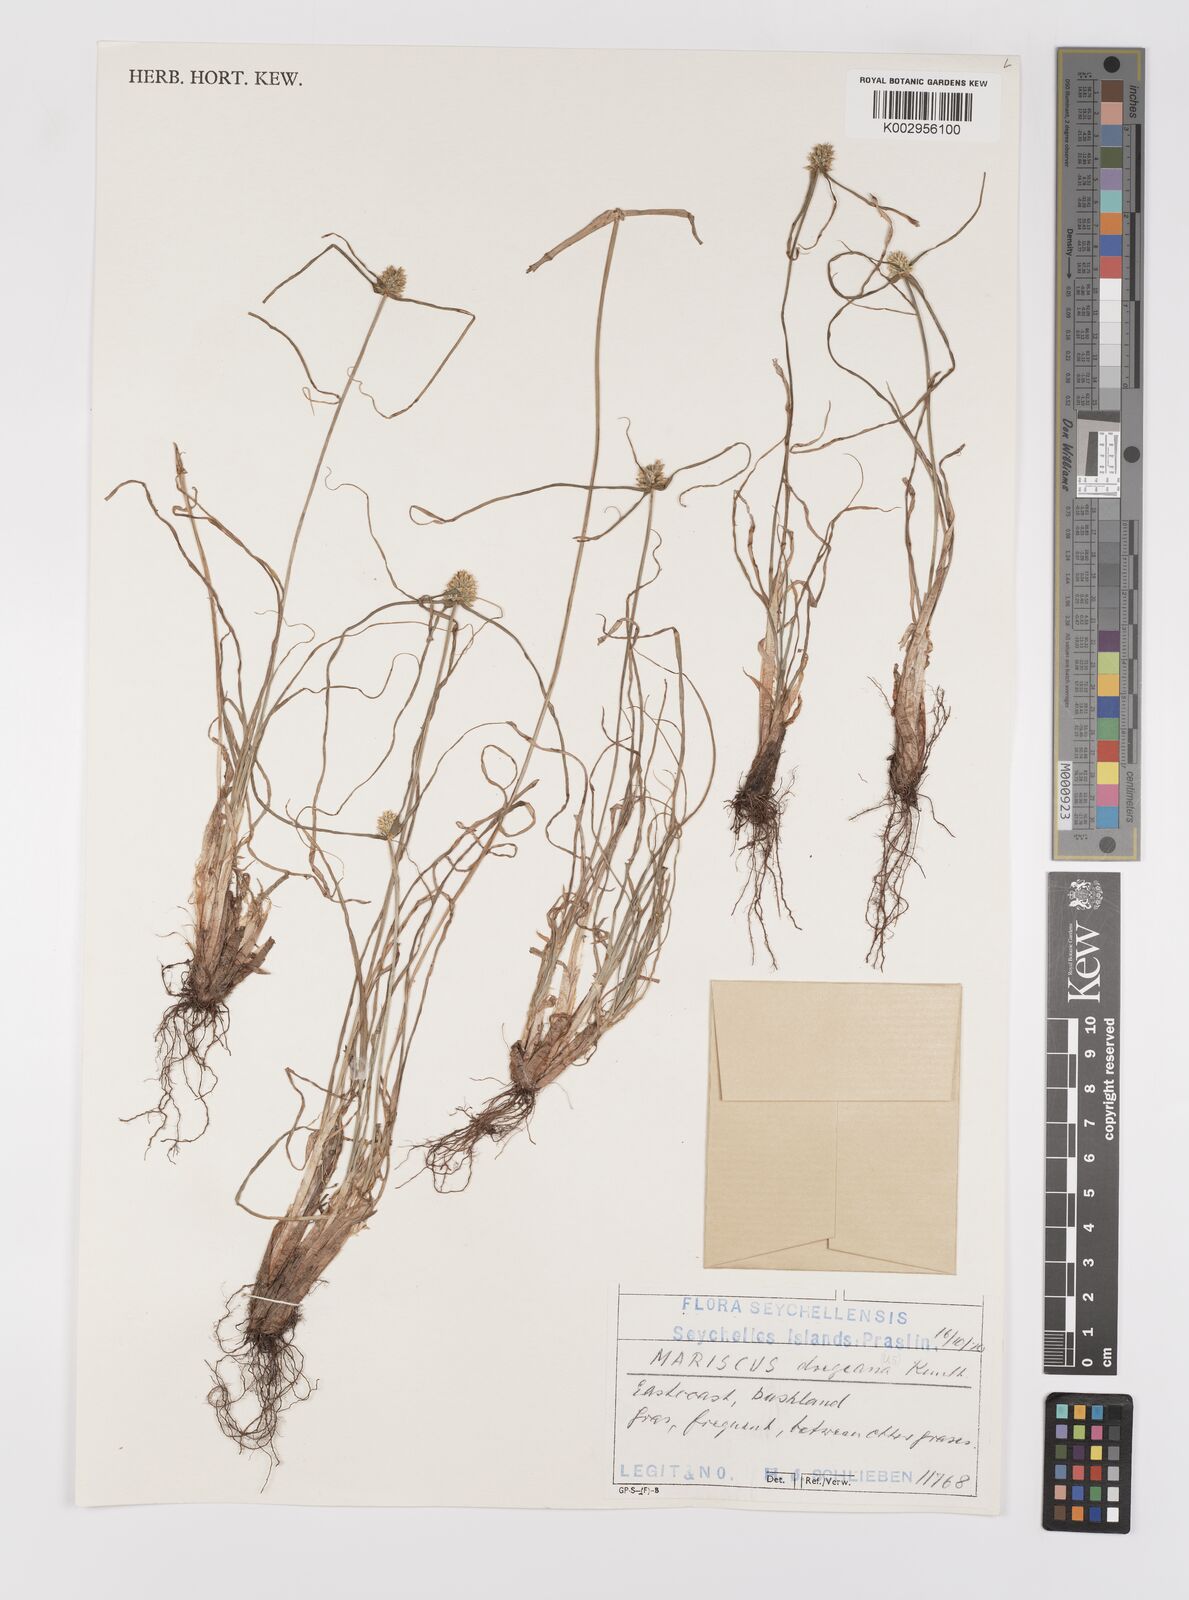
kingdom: Plantae
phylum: Tracheophyta
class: Liliopsida
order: Poales
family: Cyperaceae
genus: Cyperus
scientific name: Cyperus dubius
